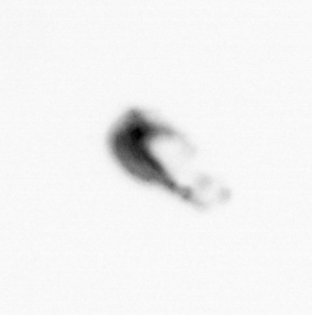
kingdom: Animalia
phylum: Arthropoda
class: Copepoda
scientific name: Copepoda
